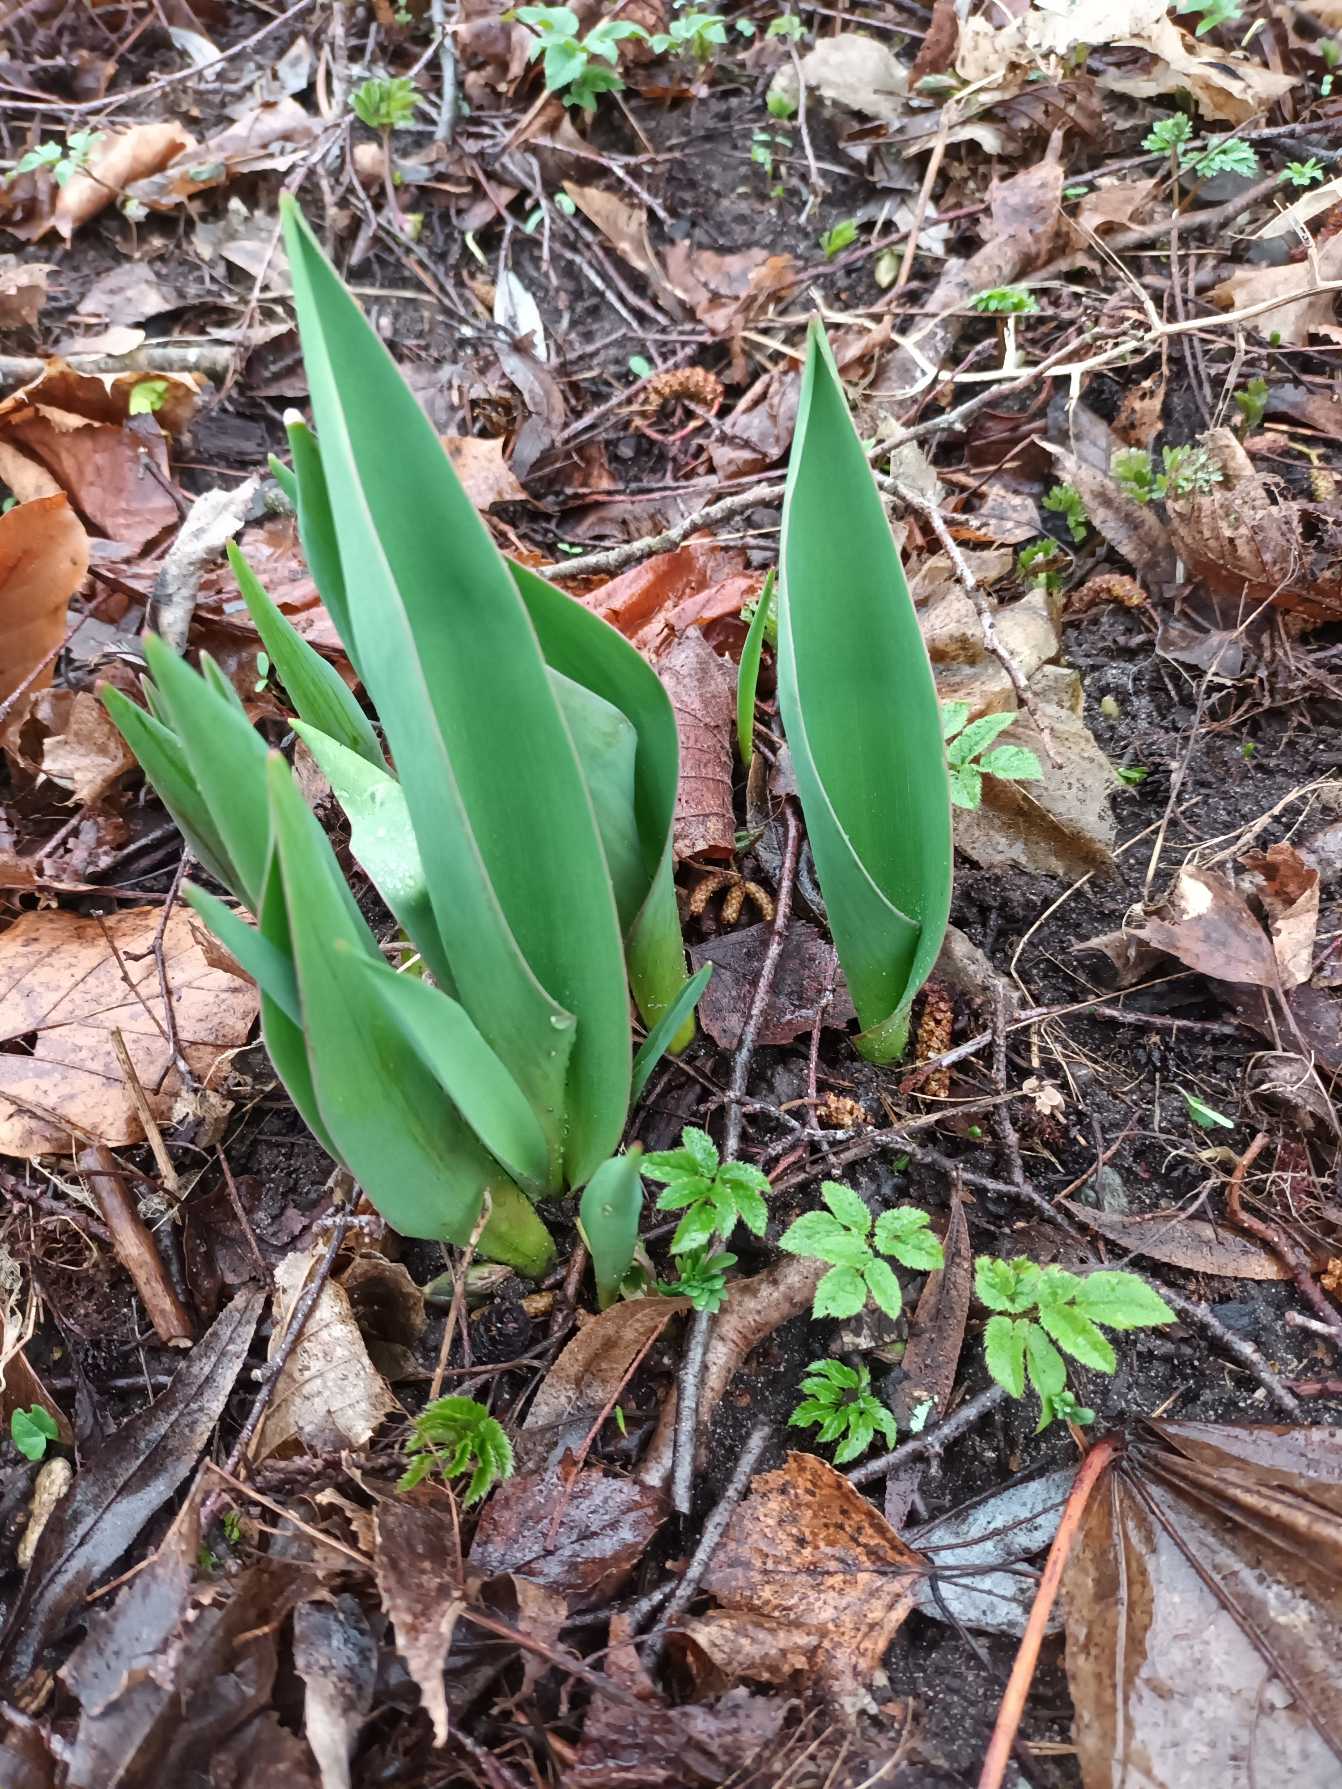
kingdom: Plantae
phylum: Tracheophyta
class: Liliopsida
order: Liliales
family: Liliaceae
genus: Tulipa
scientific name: Tulipa gesneriana
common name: Have-tulipan
